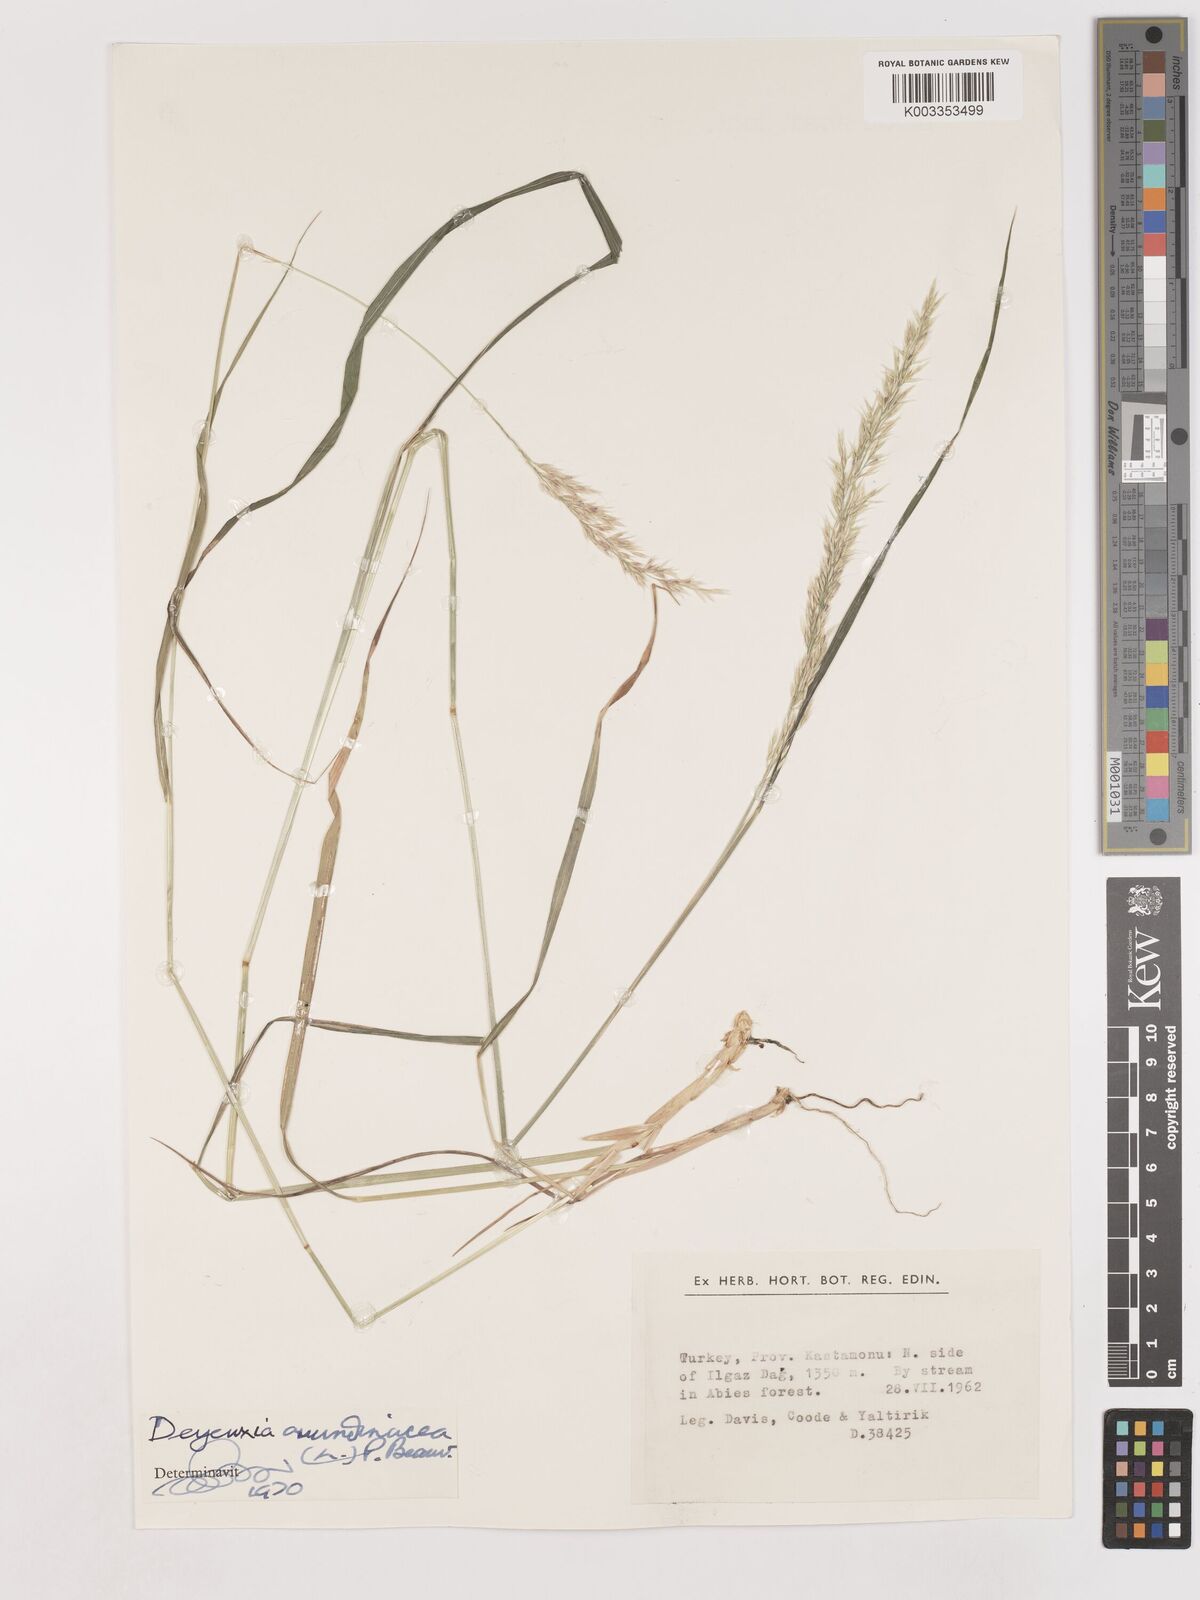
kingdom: Plantae
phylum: Tracheophyta
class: Liliopsida
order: Poales
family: Poaceae
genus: Calamagrostis
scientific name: Calamagrostis
